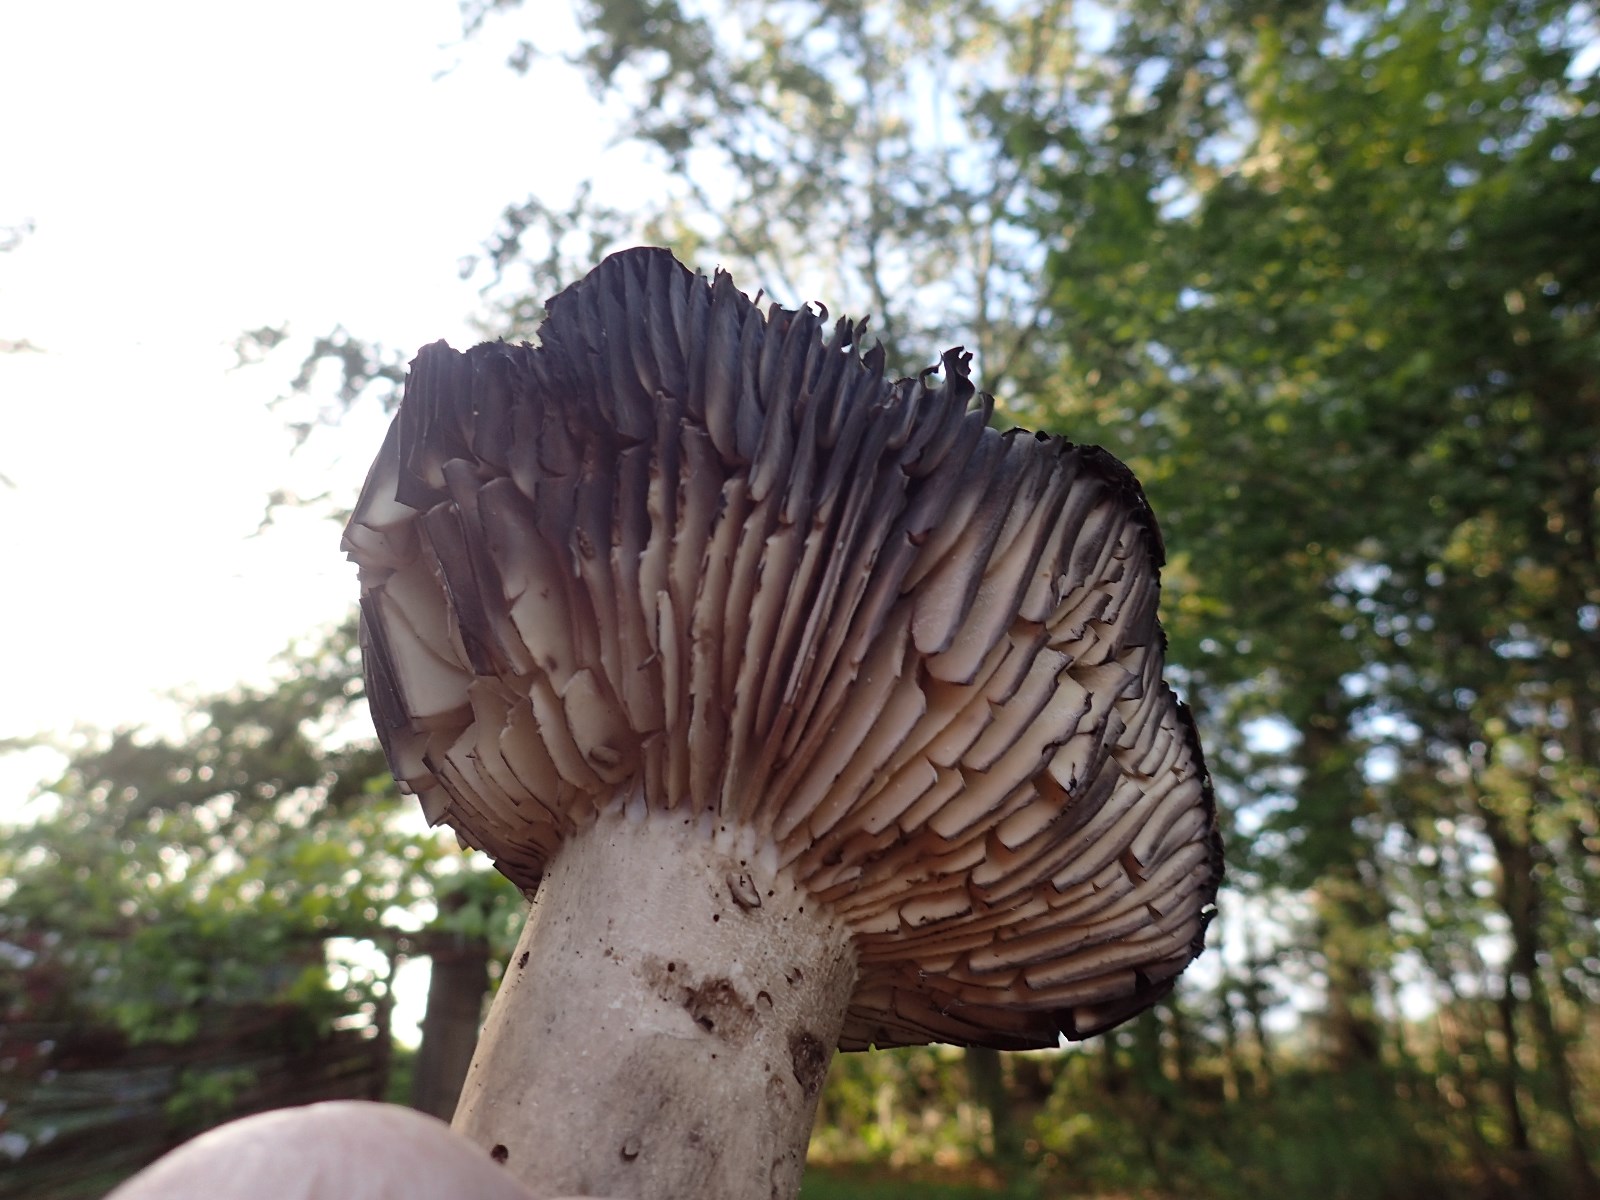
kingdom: Fungi
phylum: Basidiomycota
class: Agaricomycetes
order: Russulales
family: Russulaceae
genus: Russula
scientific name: Russula adusta
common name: sværtende skørhat
